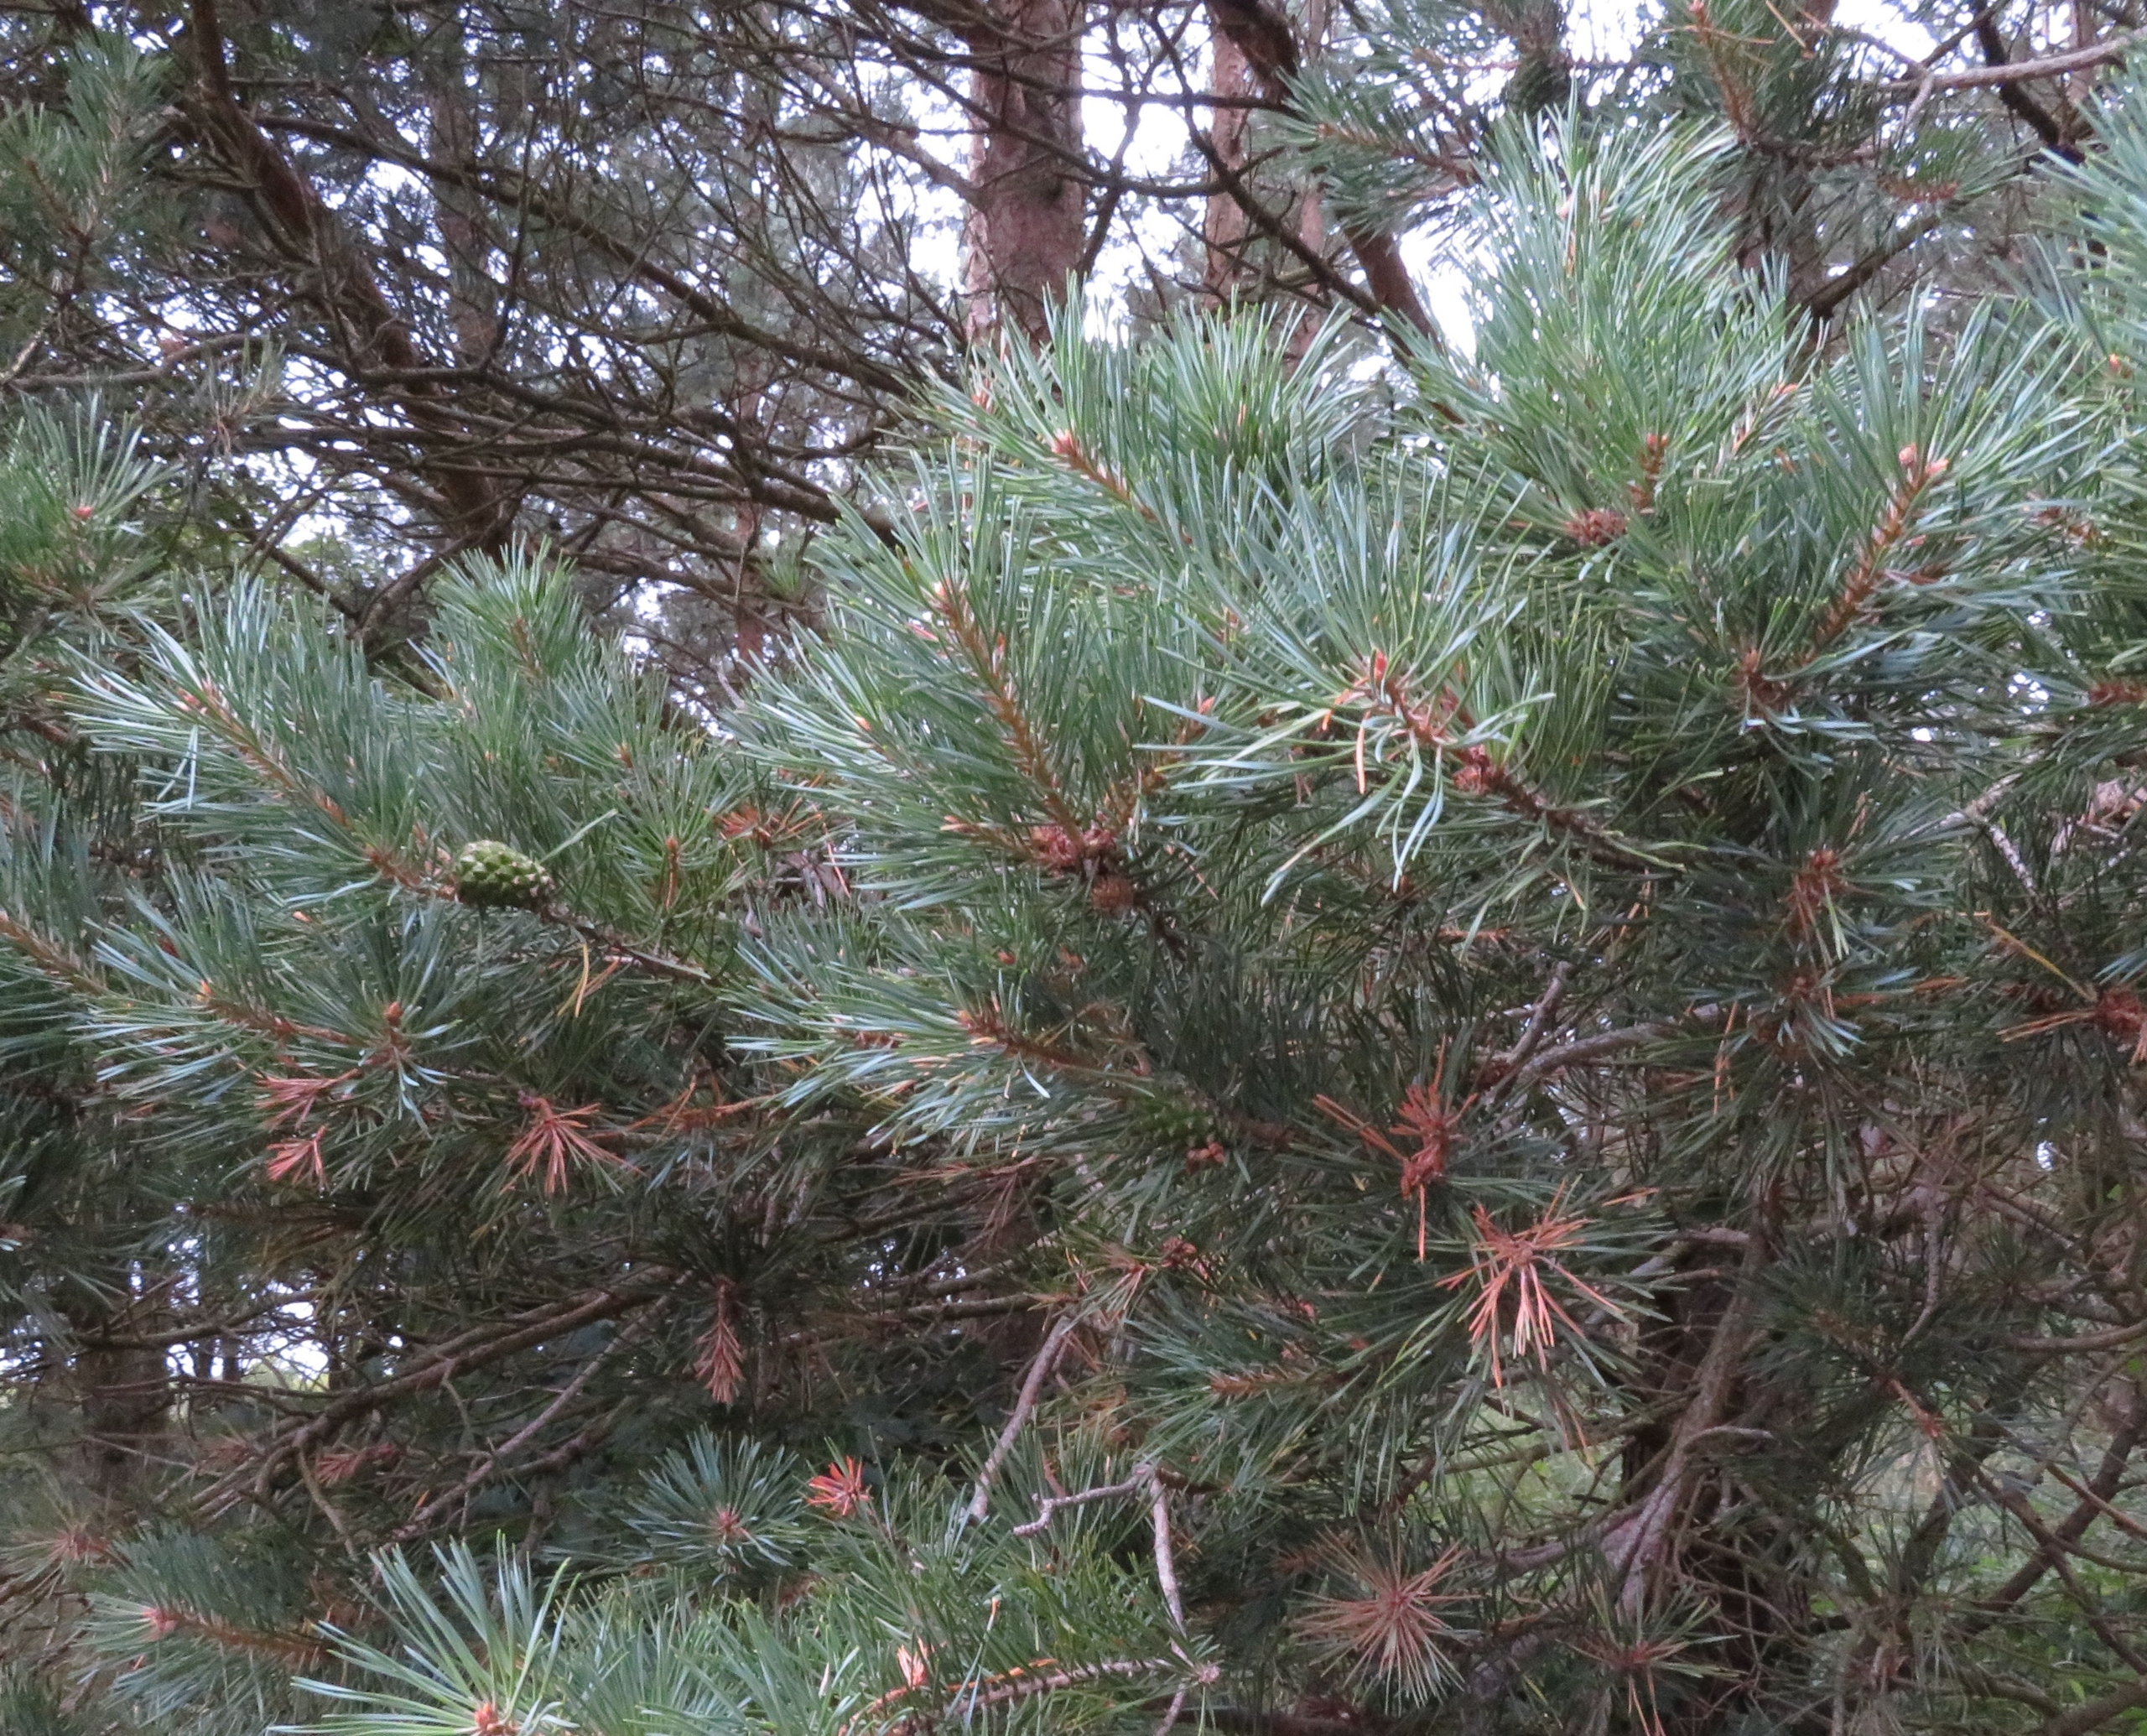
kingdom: Plantae
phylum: Tracheophyta
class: Pinopsida
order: Pinales
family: Pinaceae
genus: Pinus
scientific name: Pinus sylvestris
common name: Skov-fyr
